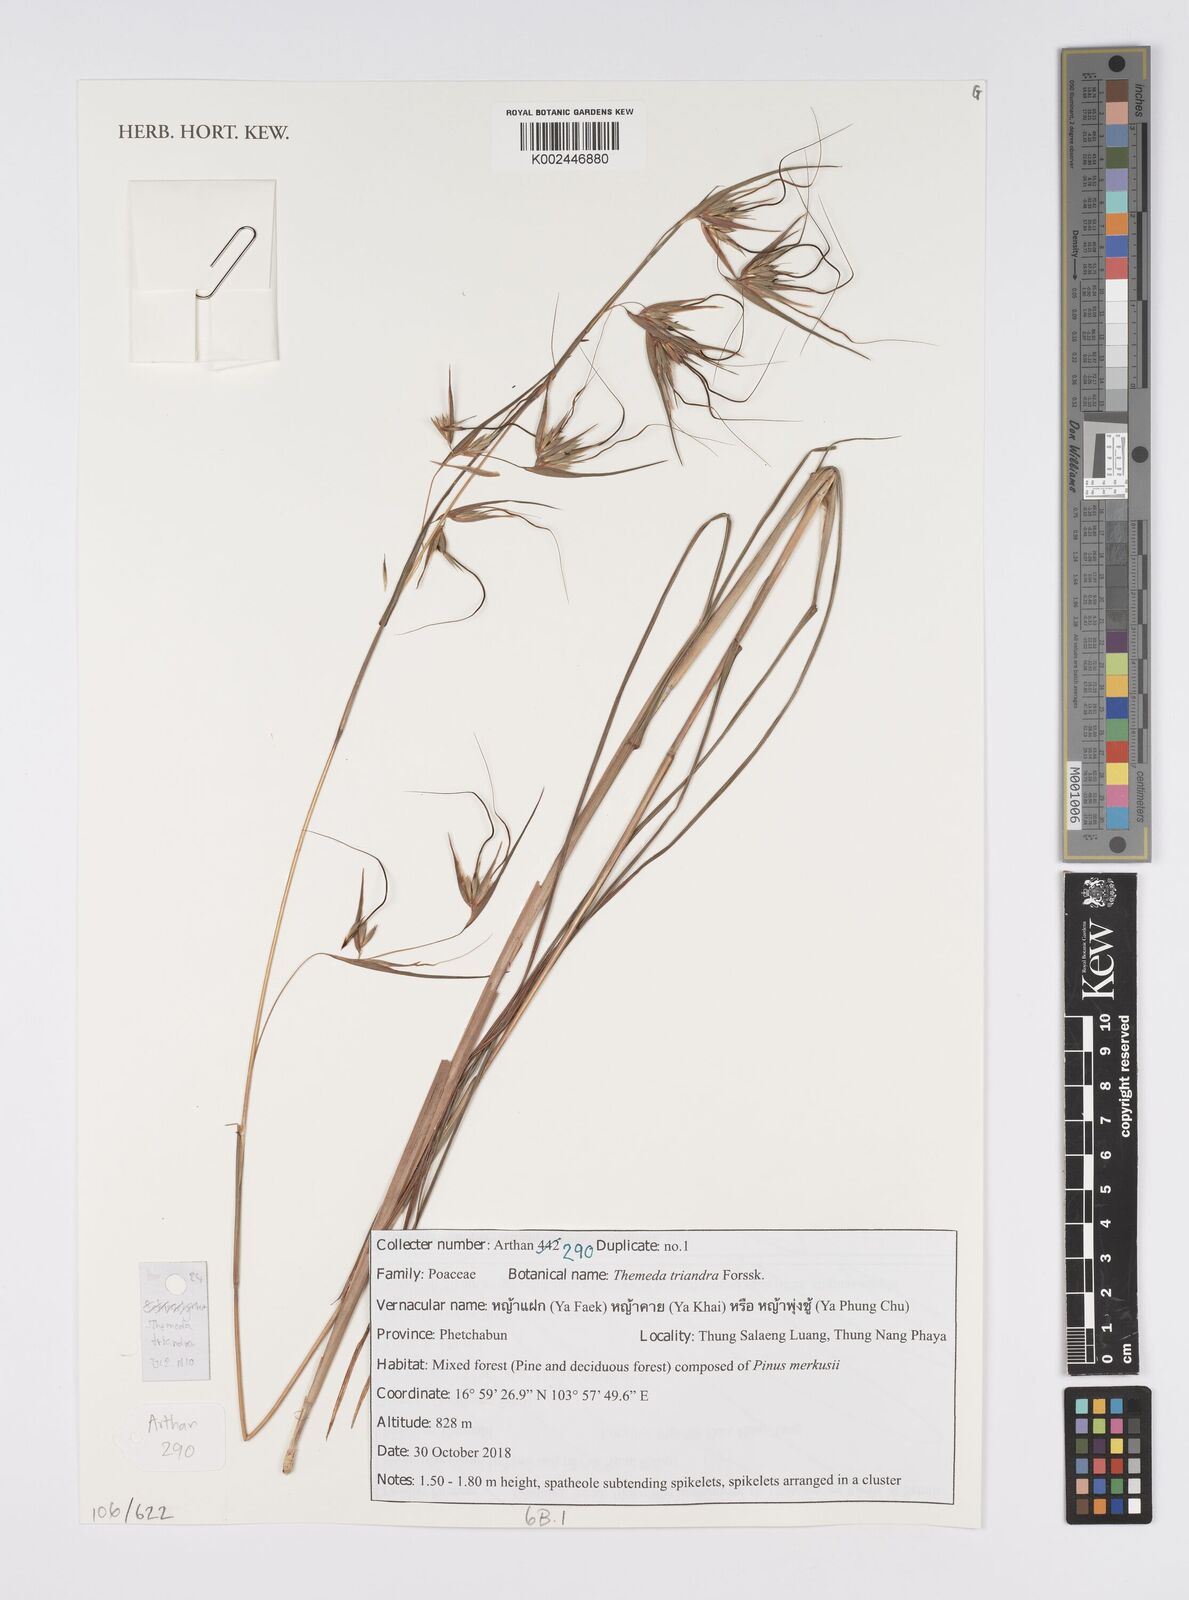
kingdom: Plantae
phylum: Tracheophyta
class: Liliopsida
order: Poales
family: Poaceae
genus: Themeda
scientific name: Themeda triandra
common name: Kangaroo grass
